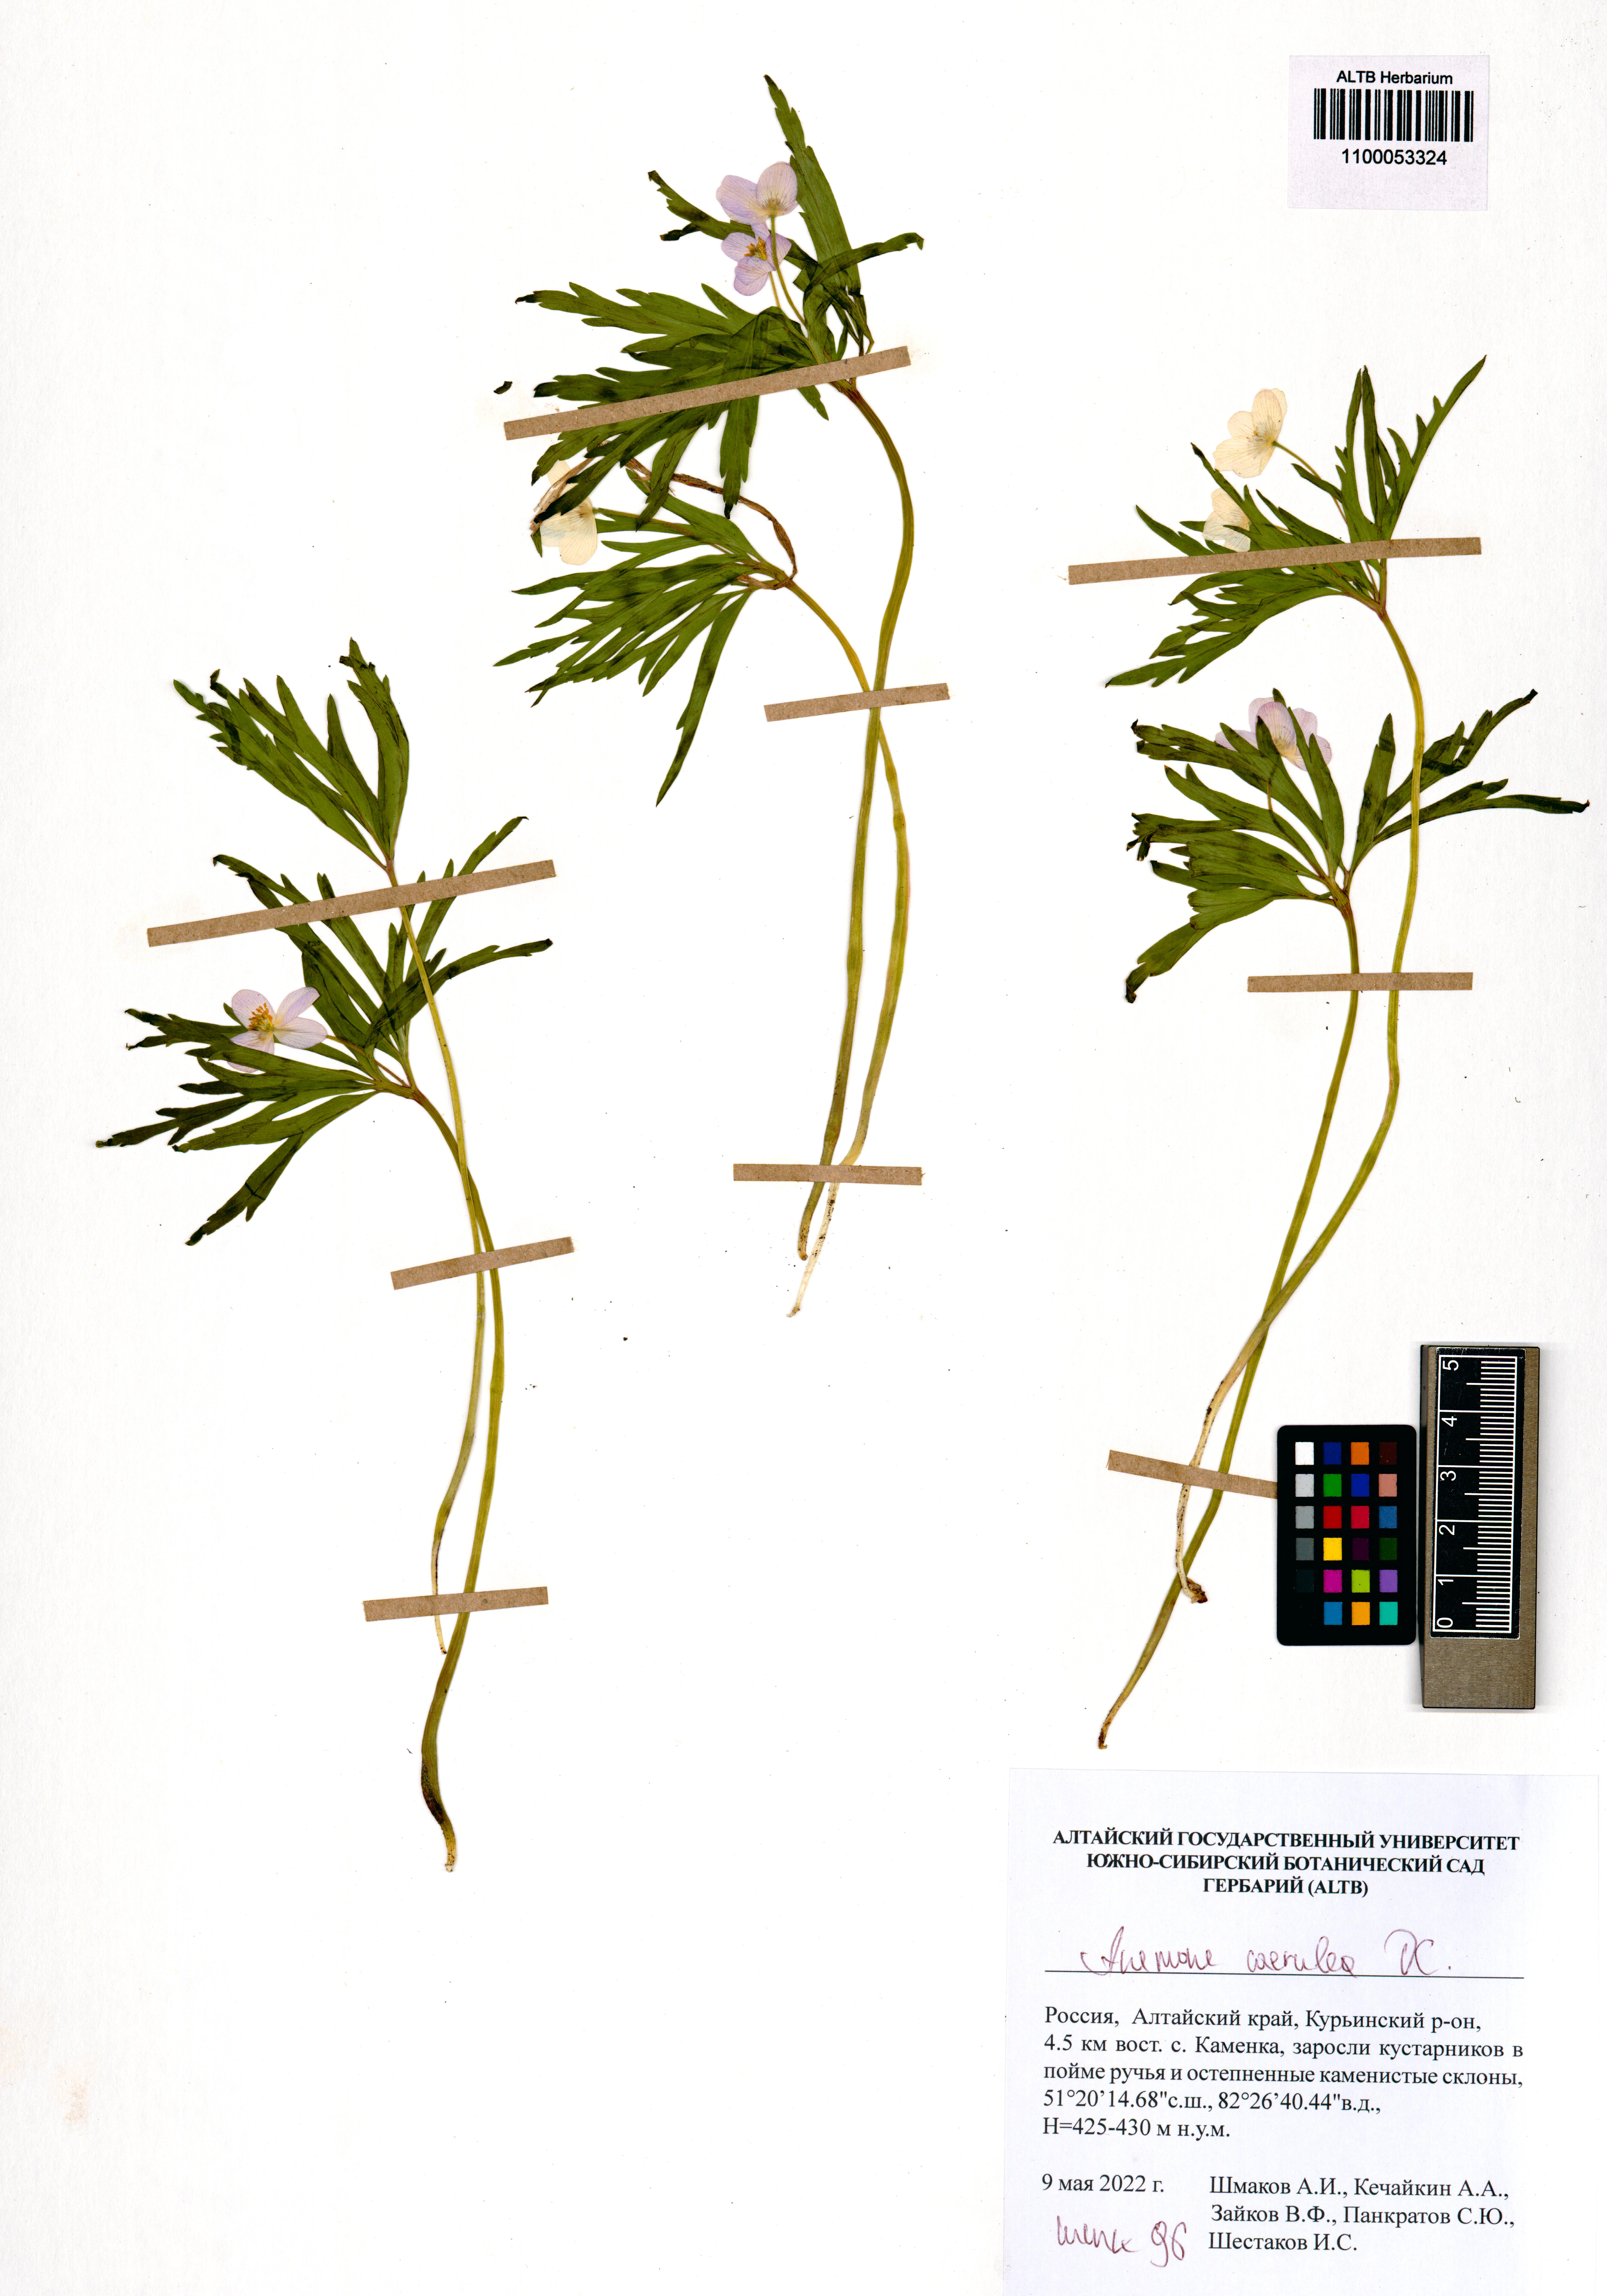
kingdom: Plantae
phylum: Tracheophyta
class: Magnoliopsida
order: Ranunculales
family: Ranunculaceae
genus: Anemone
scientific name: Anemone caerulea
